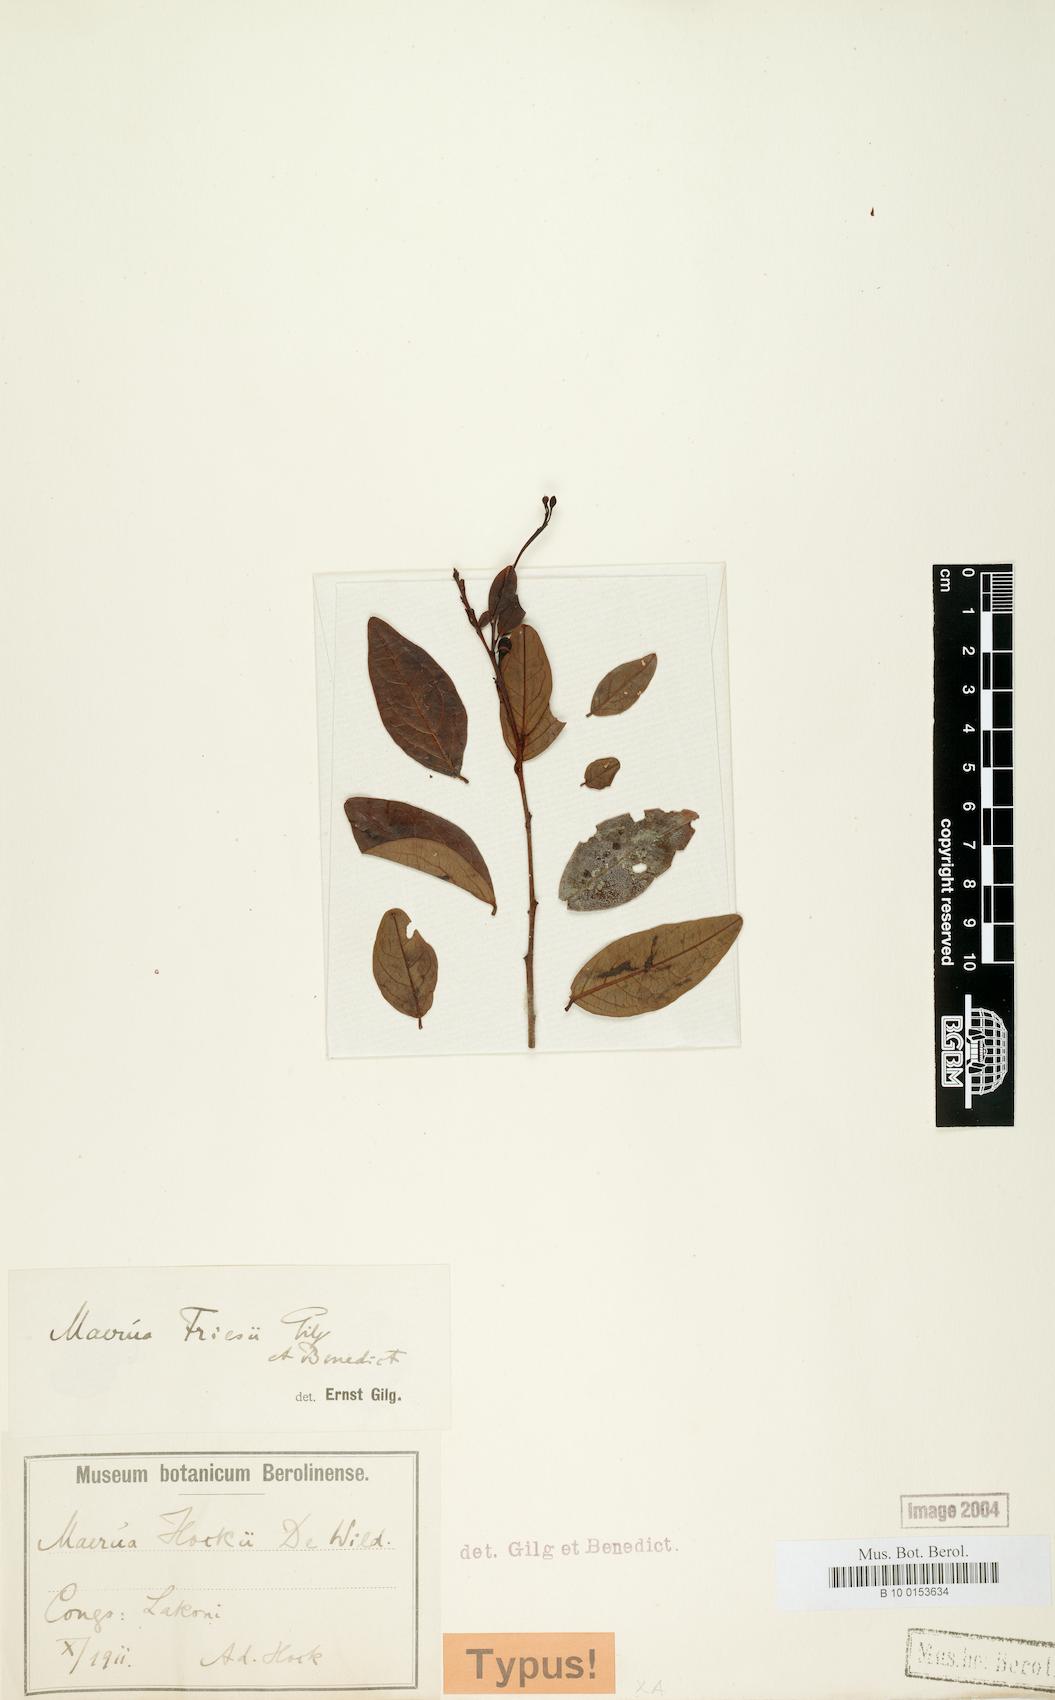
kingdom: Plantae
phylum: Tracheophyta
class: Magnoliopsida
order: Brassicales
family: Capparaceae
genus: Maerua
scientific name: Maerua friesii
